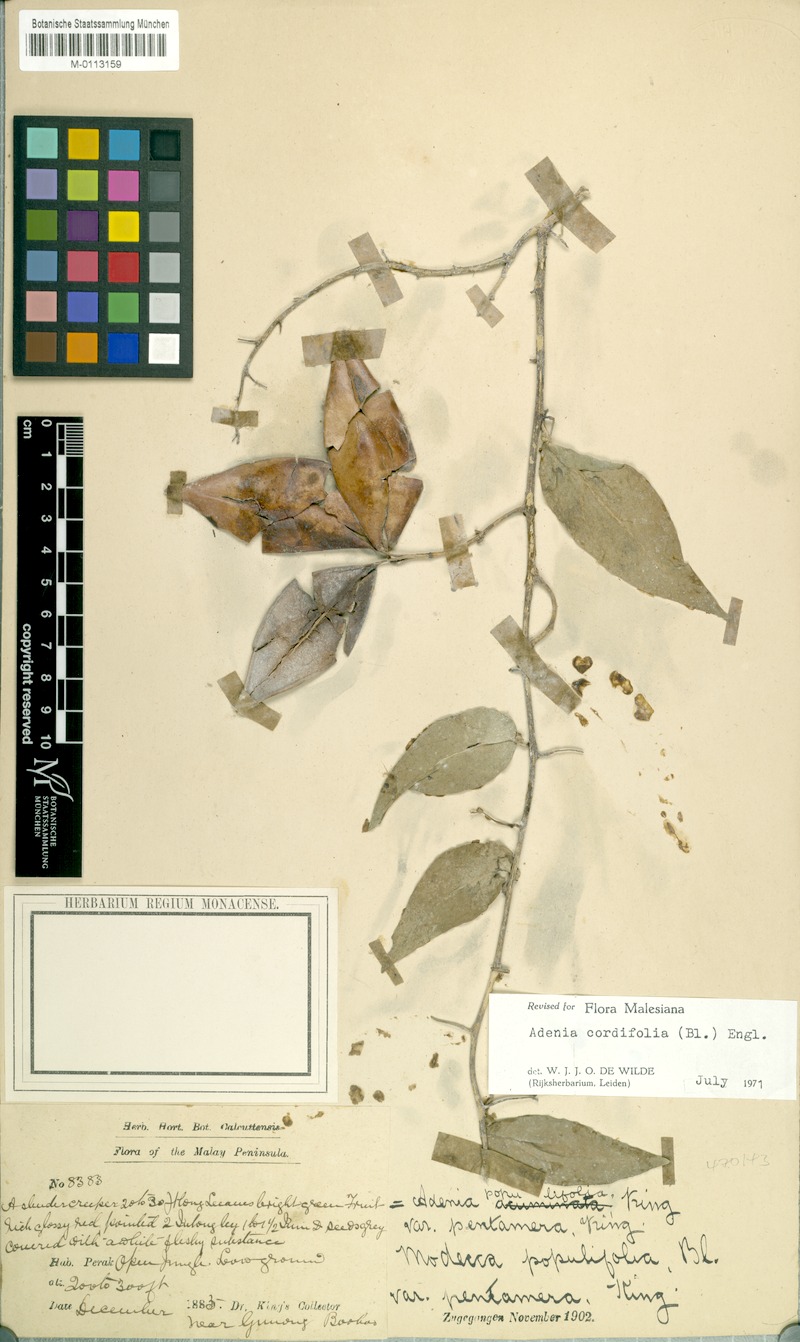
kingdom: Plantae
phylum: Tracheophyta
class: Magnoliopsida
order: Malpighiales
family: Passifloraceae
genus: Adenia
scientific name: Adenia cordifolia
